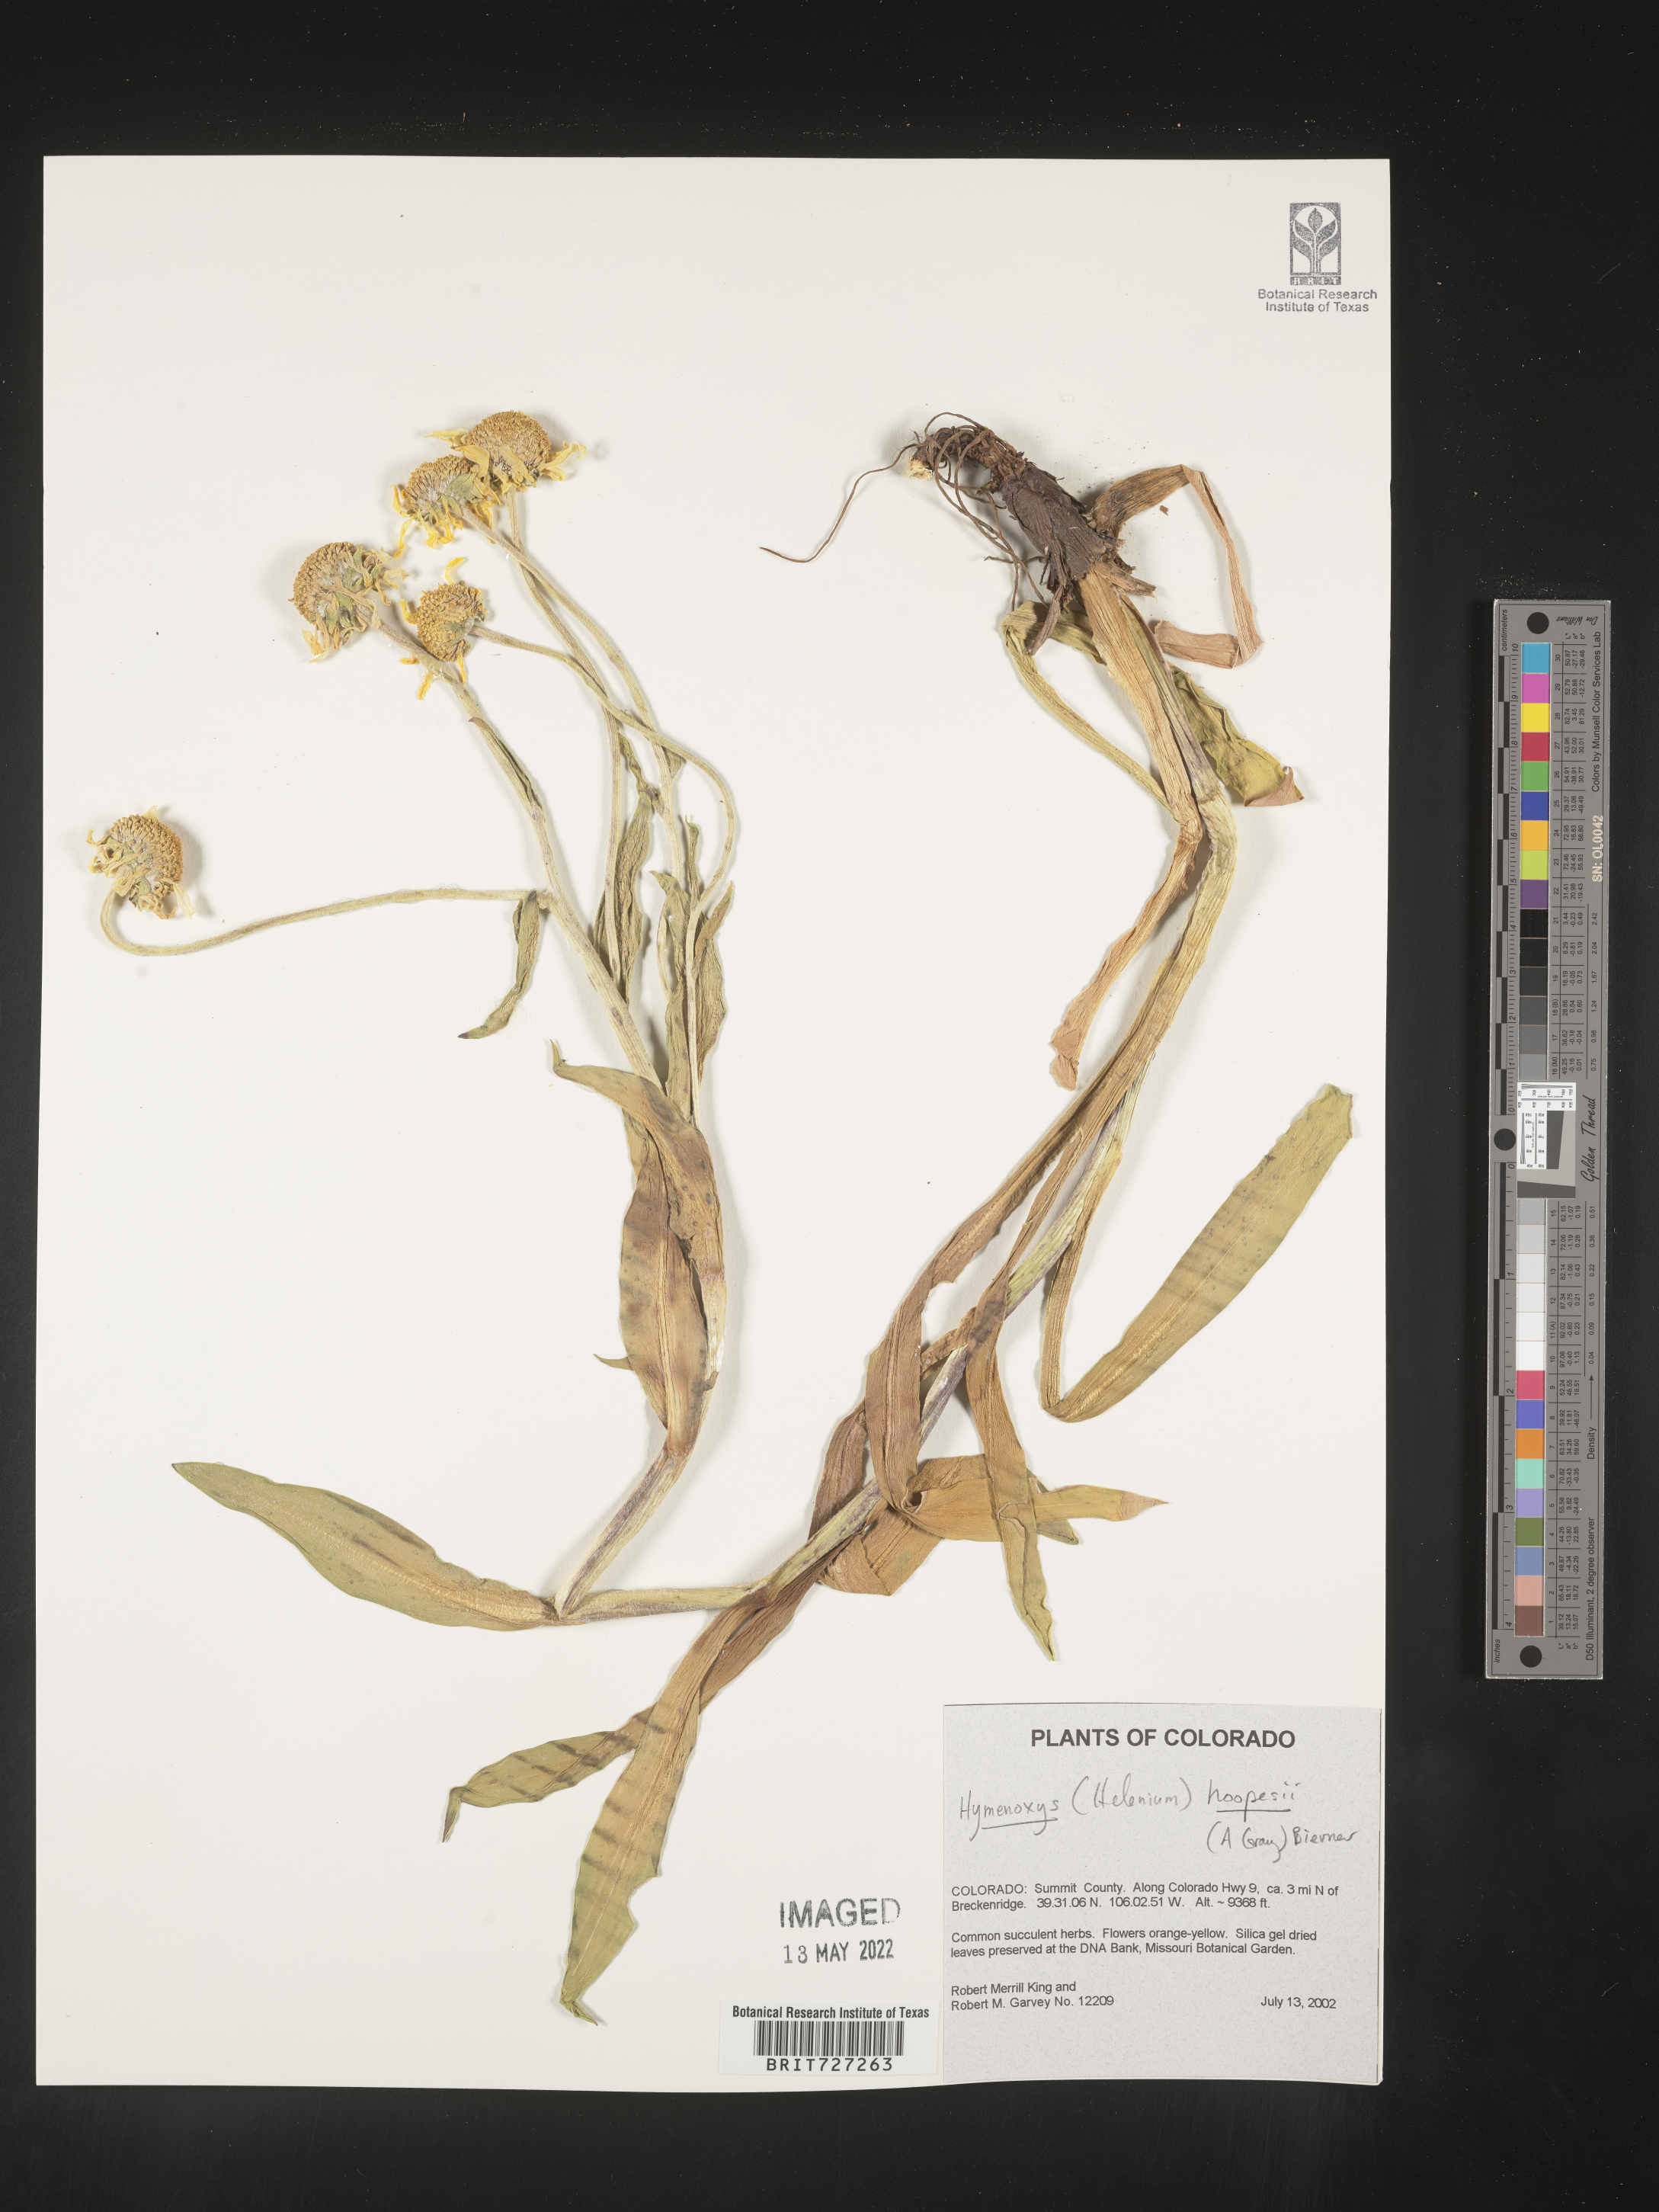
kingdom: Plantae
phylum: Tracheophyta
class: Magnoliopsida
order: Asterales
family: Asteraceae
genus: Hymenoxys
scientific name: Hymenoxys hoopesii
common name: Orange-sneezeweed
